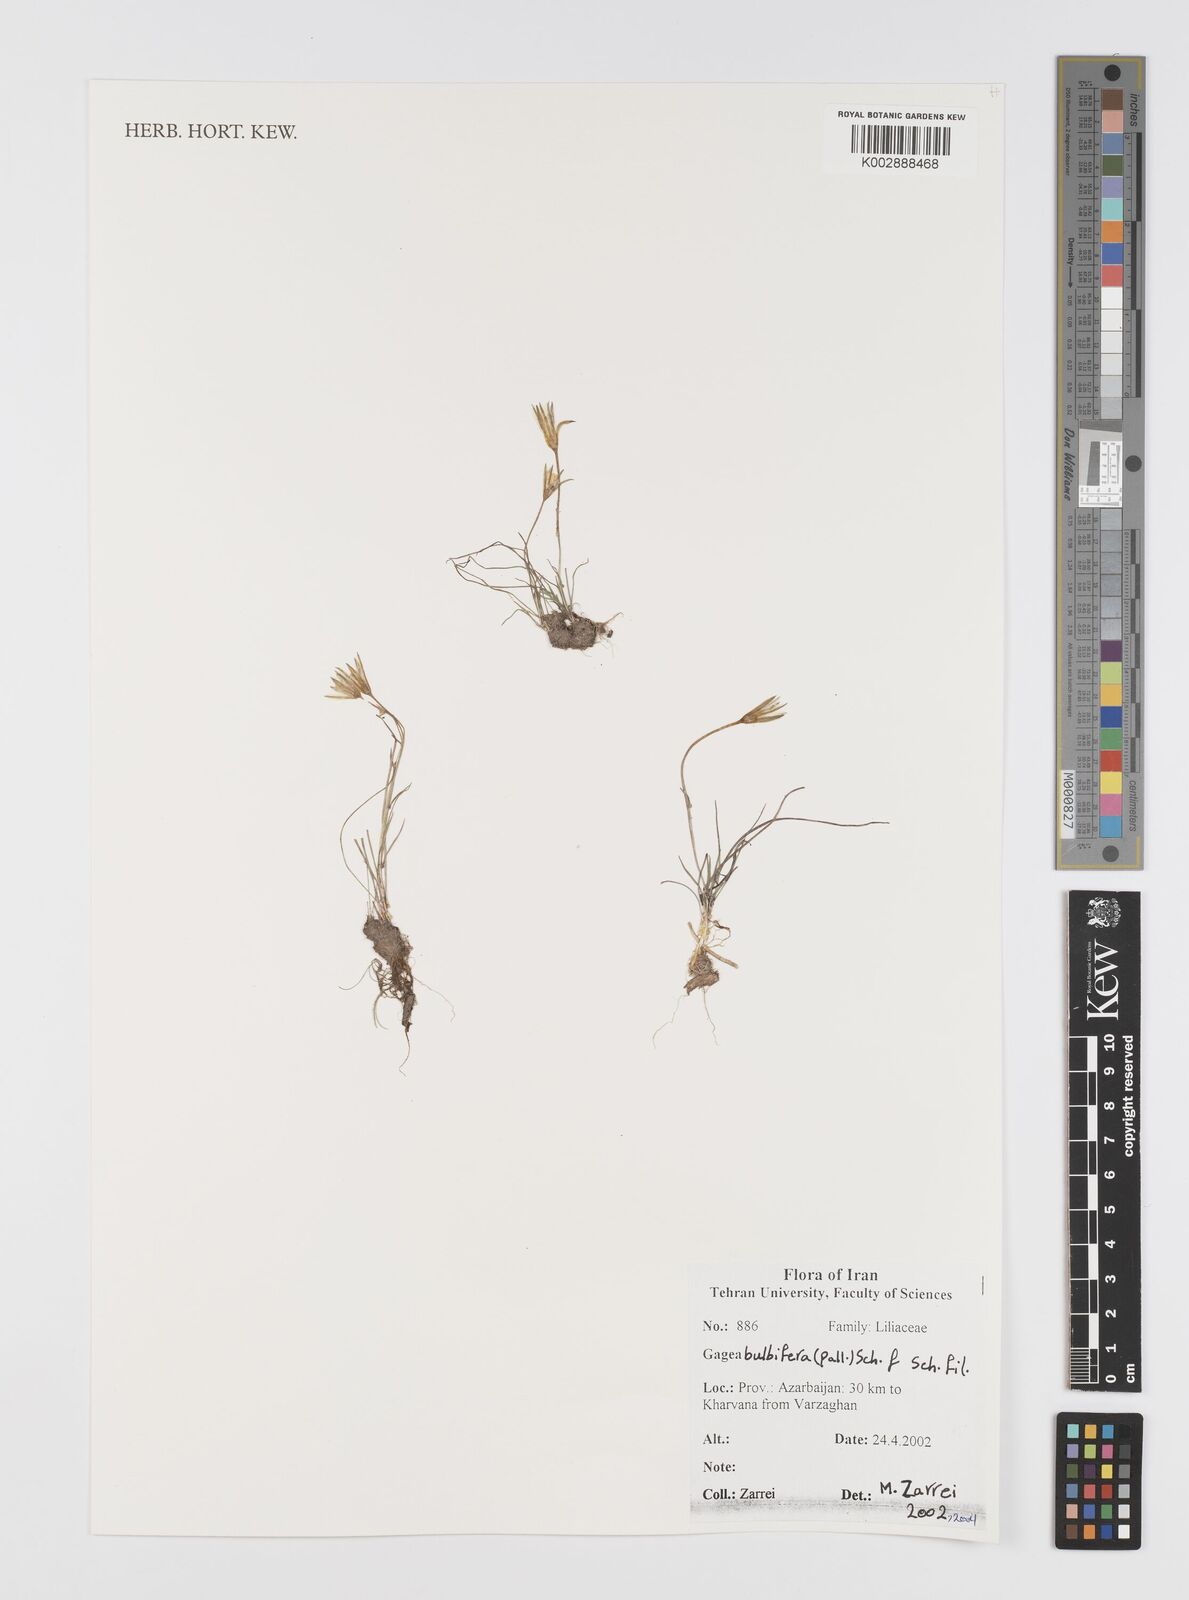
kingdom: Plantae
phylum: Tracheophyta
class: Liliopsida
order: Liliales
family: Liliaceae
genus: Gagea
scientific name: Gagea bulbifera
